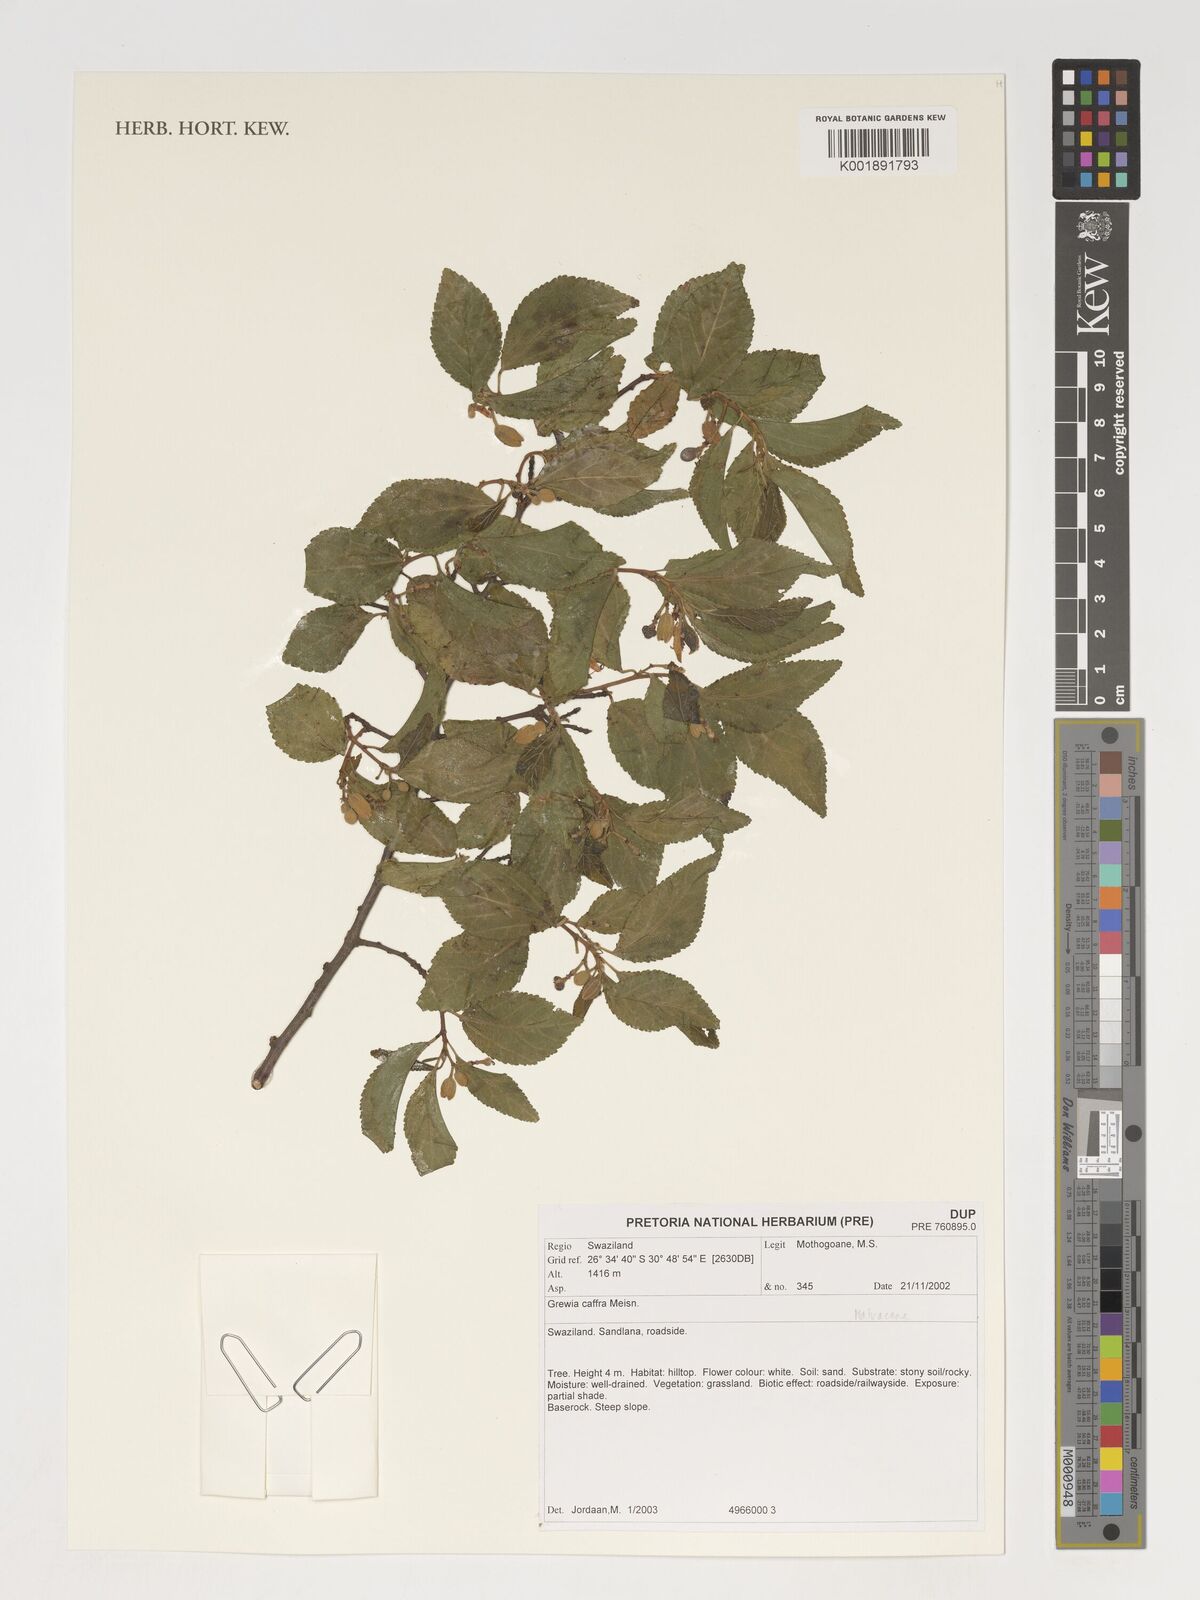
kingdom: Plantae
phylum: Tracheophyta
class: Magnoliopsida
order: Malvales
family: Malvaceae
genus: Grewia
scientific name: Grewia caffra
